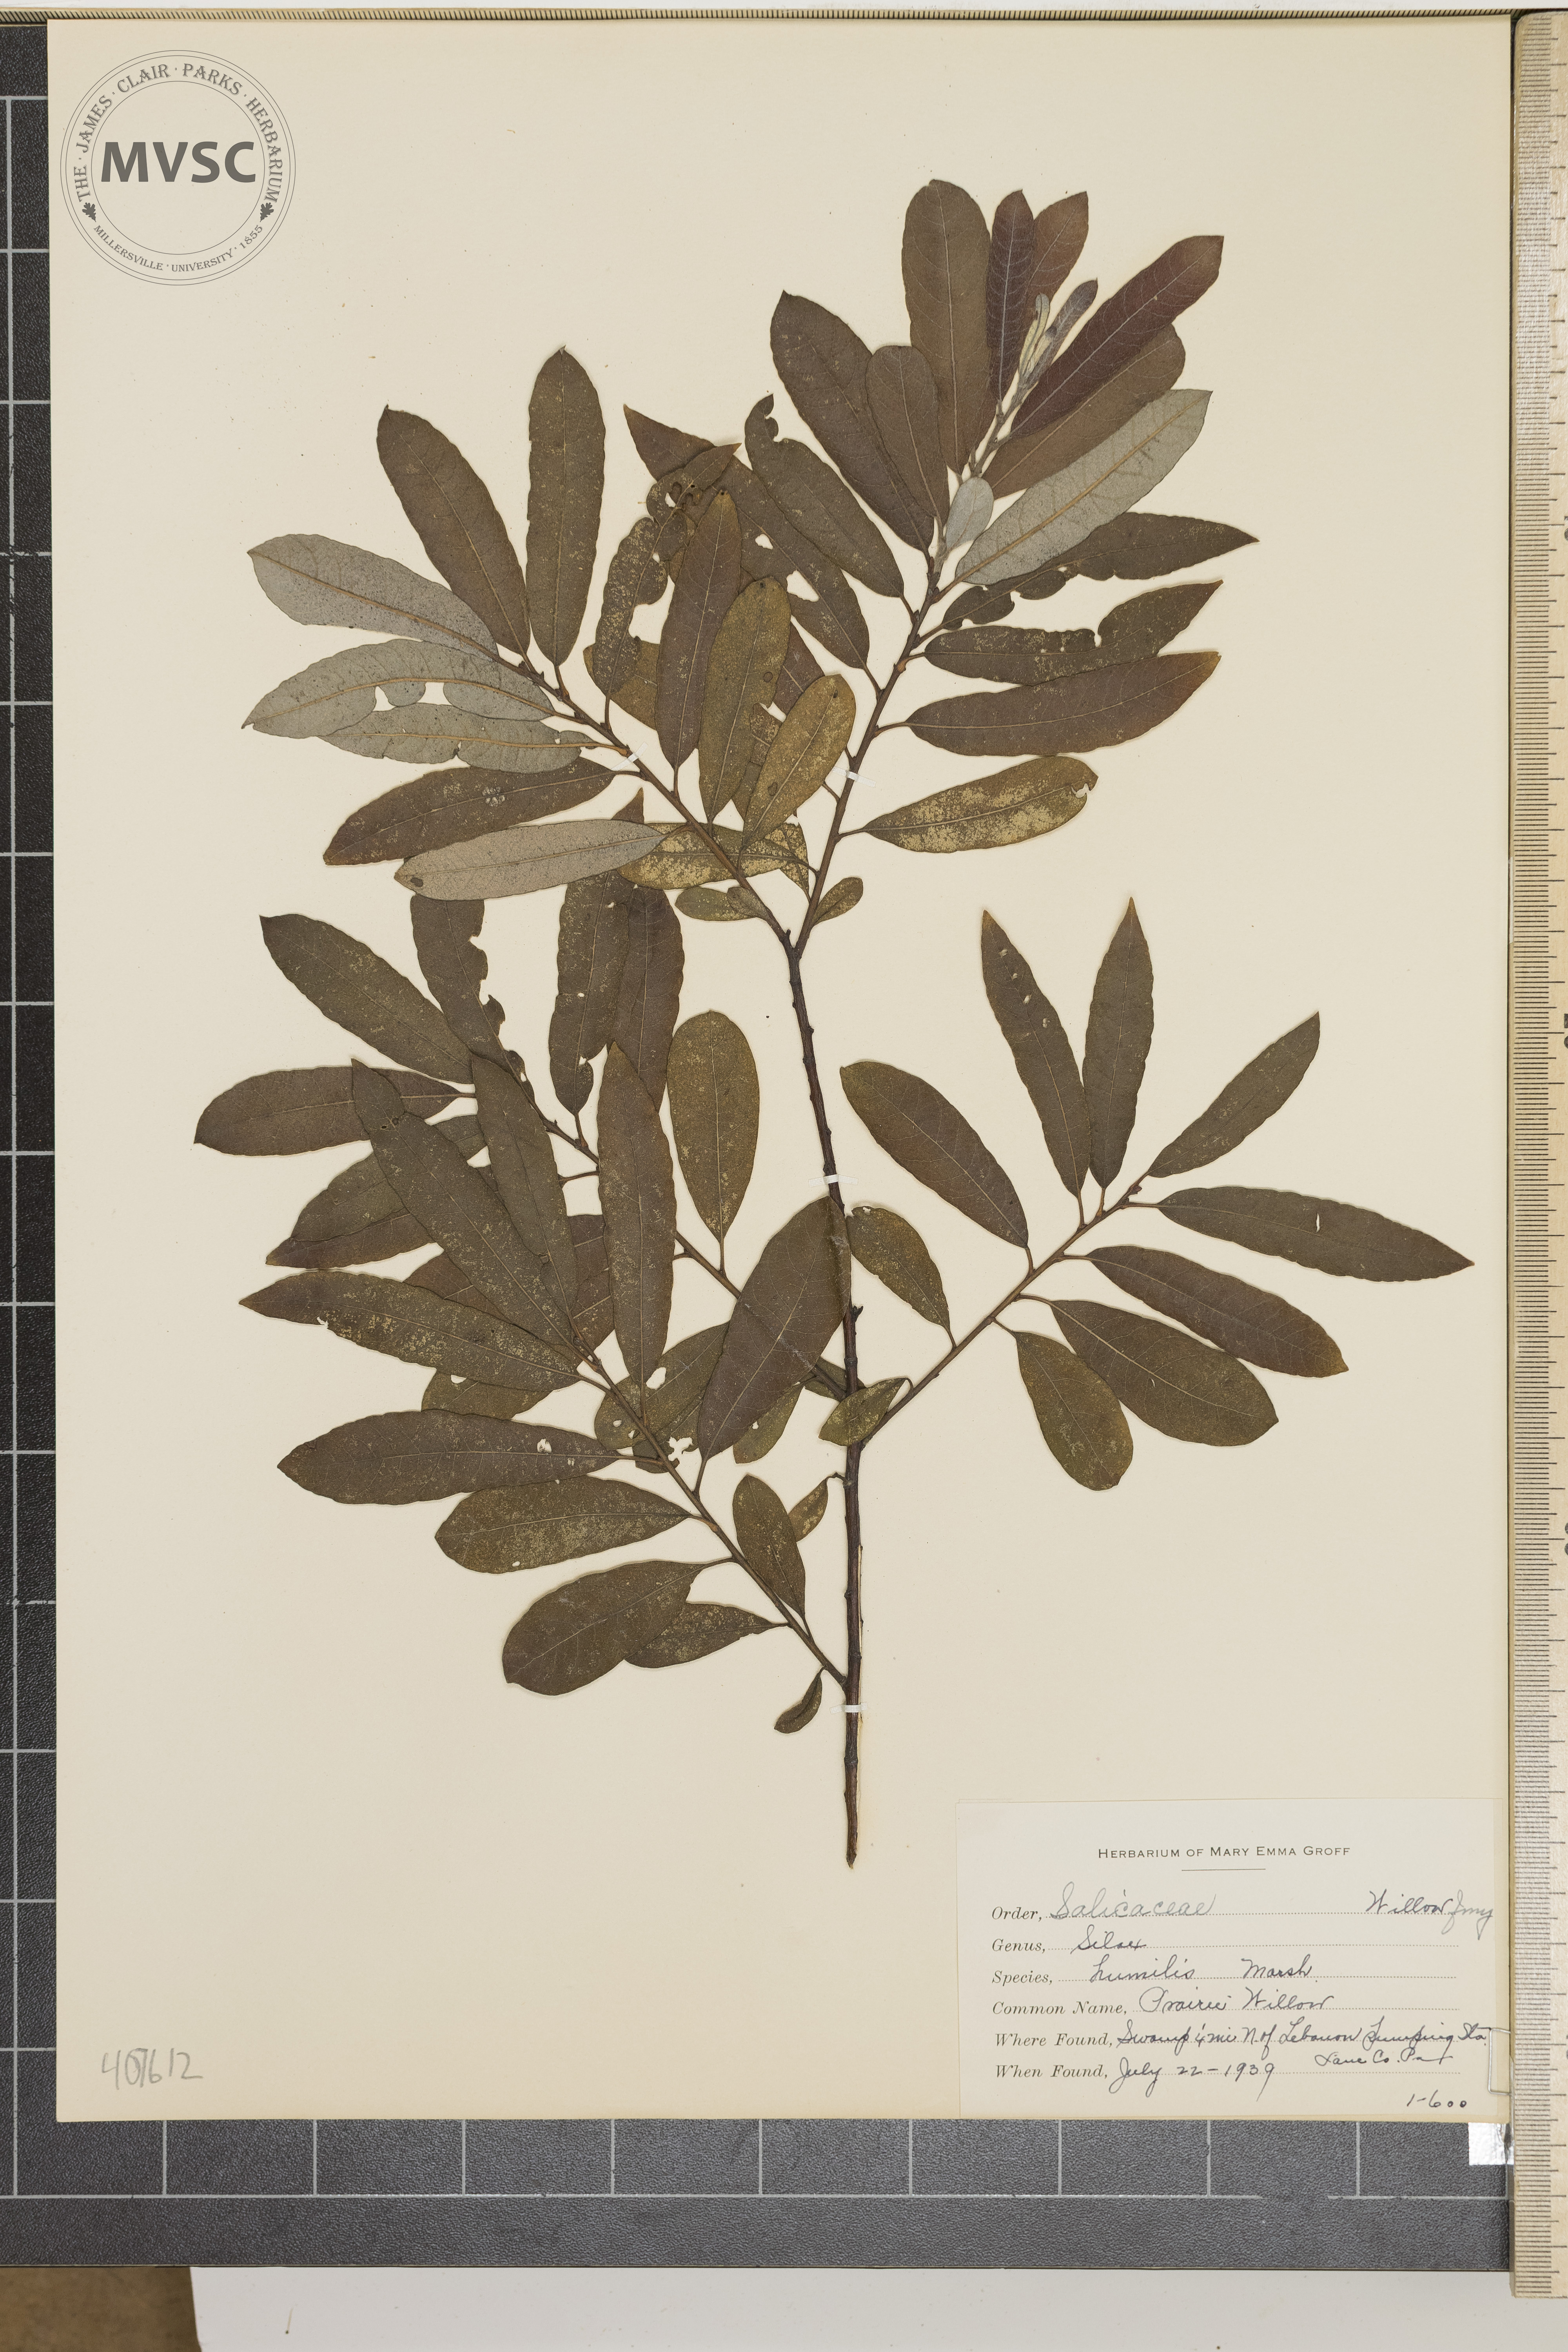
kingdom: Plantae
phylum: Tracheophyta
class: Magnoliopsida
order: Malpighiales
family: Salicaceae
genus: Salix
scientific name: Salix humilis
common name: Prairie Willow
